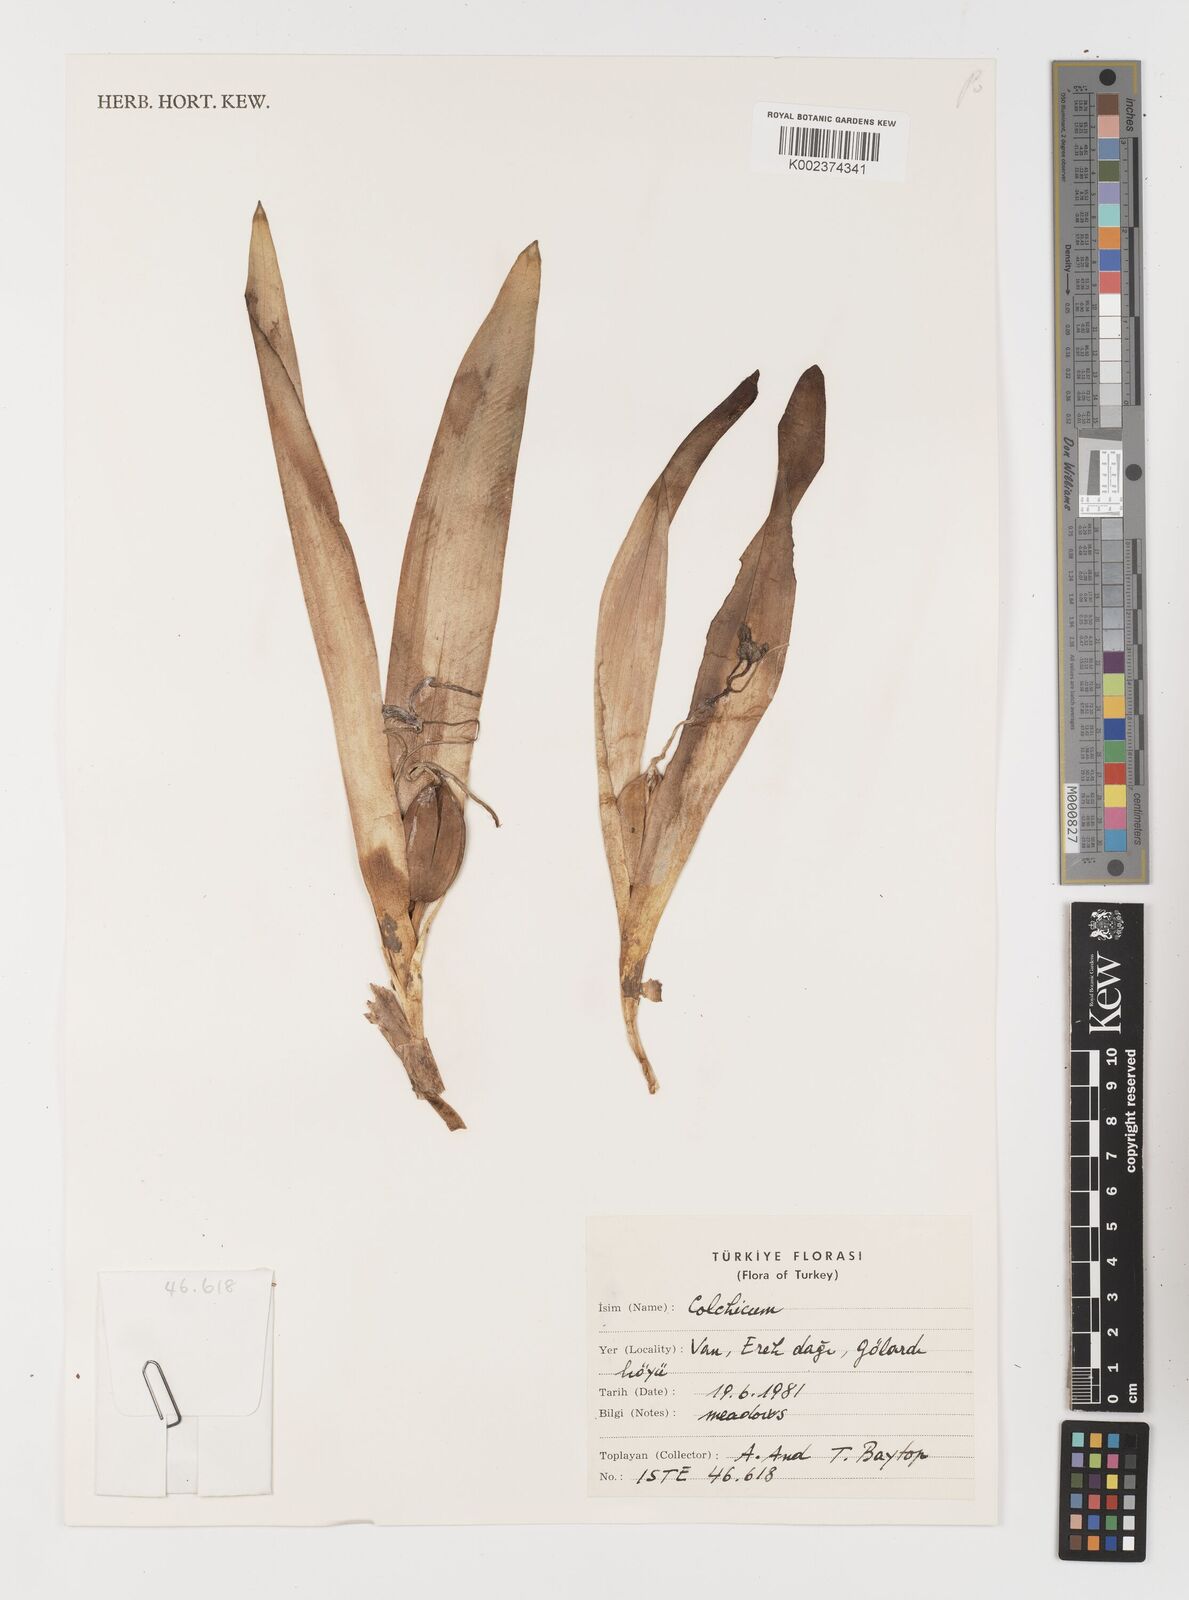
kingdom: Plantae
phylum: Tracheophyta
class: Liliopsida
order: Liliales
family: Colchicaceae
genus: Colchicum
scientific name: Colchicum
